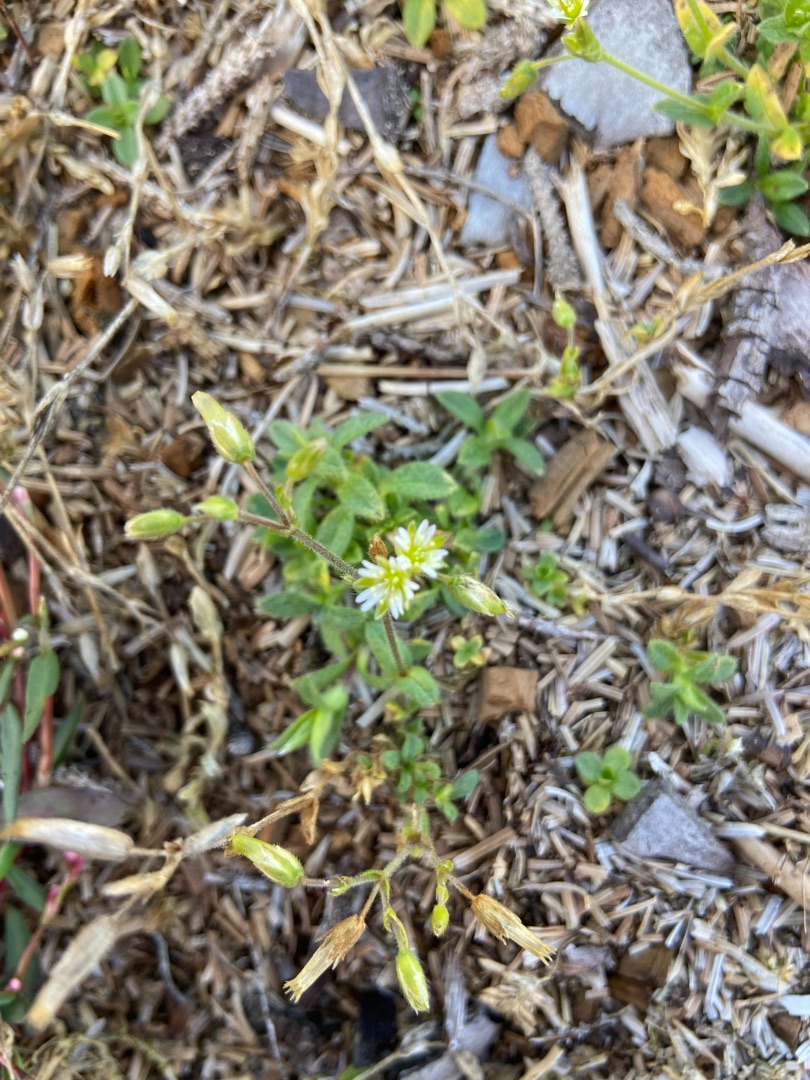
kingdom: Plantae
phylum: Tracheophyta
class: Magnoliopsida
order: Caryophyllales
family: Caryophyllaceae
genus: Cerastium
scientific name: Cerastium fontanum
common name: Almindelig hønsetarm
